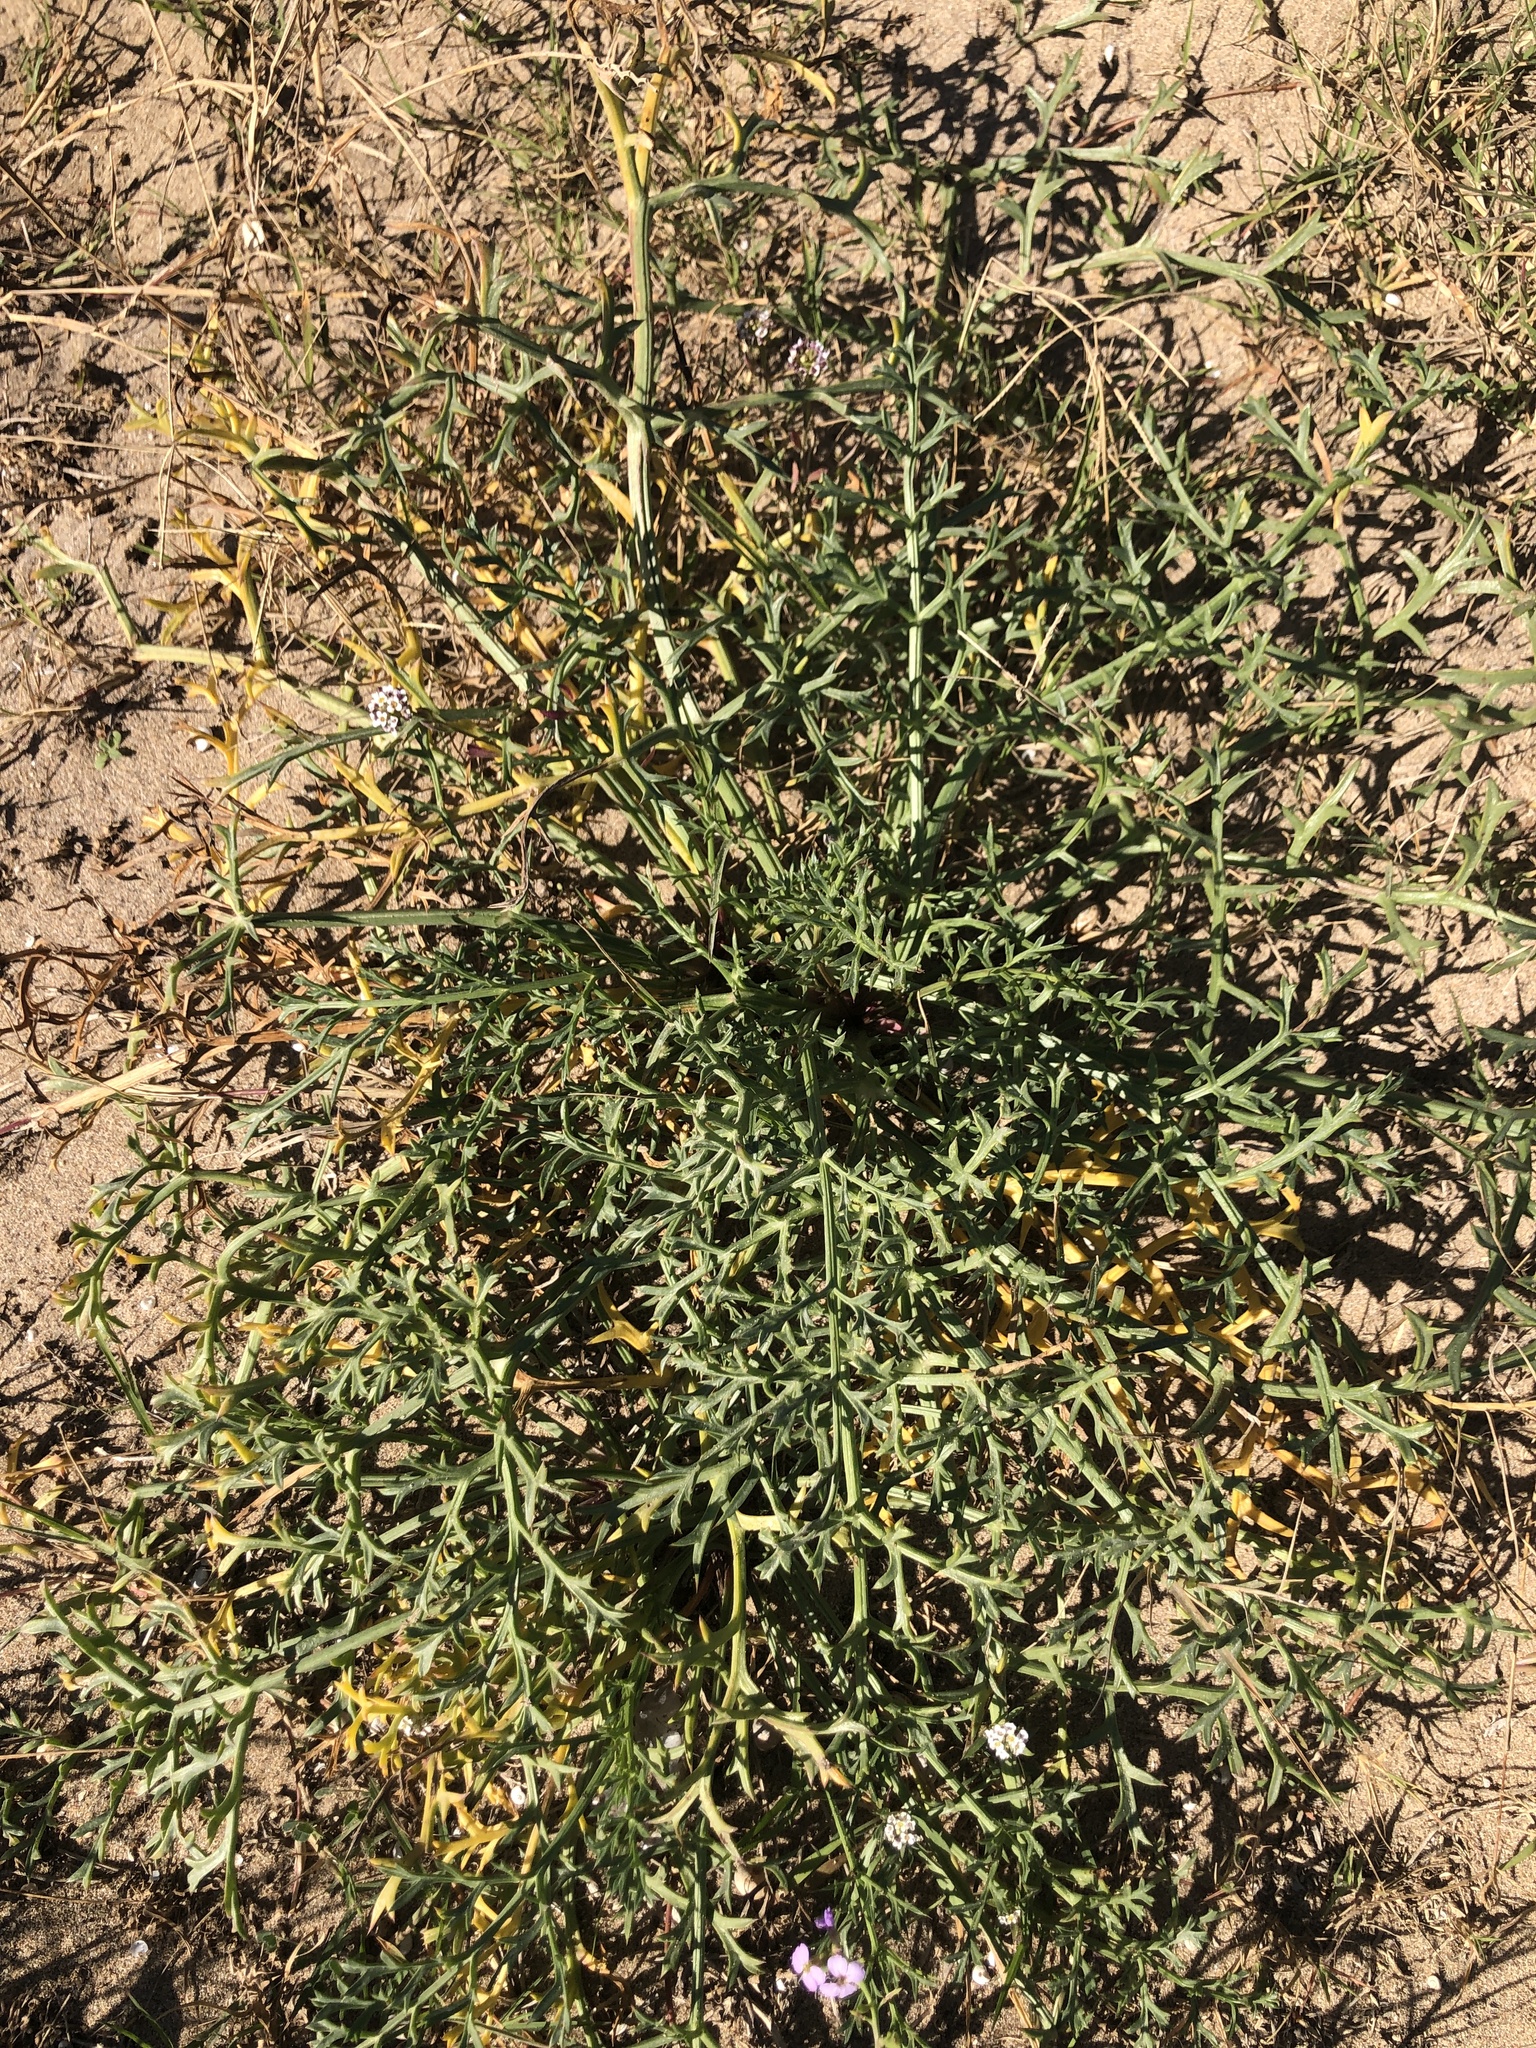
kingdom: Plantae
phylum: Tracheophyta
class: Magnoliopsida
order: Apiales
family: Apiaceae
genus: Echinophora
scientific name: Echinophora spinosa
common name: Prickly samphire
